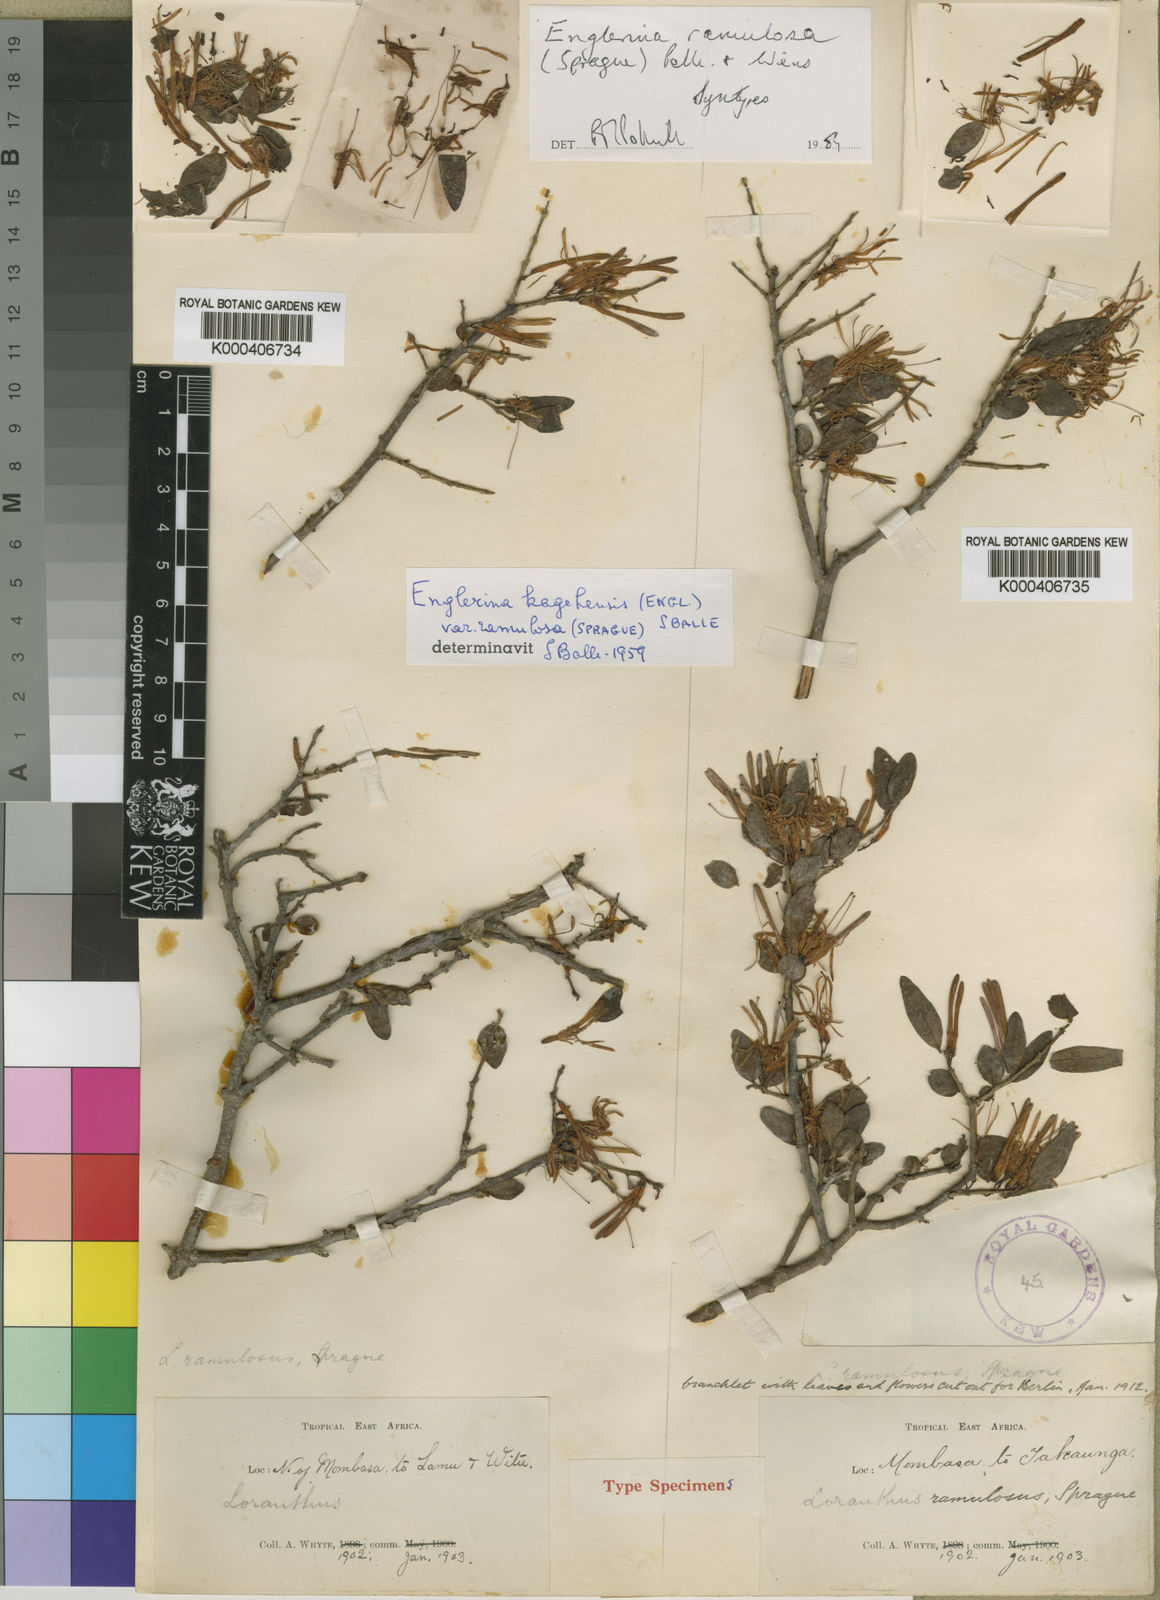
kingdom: Plantae
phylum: Tracheophyta
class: Magnoliopsida
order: Santalales
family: Loranthaceae
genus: Englerina
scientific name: Englerina ramulosa
